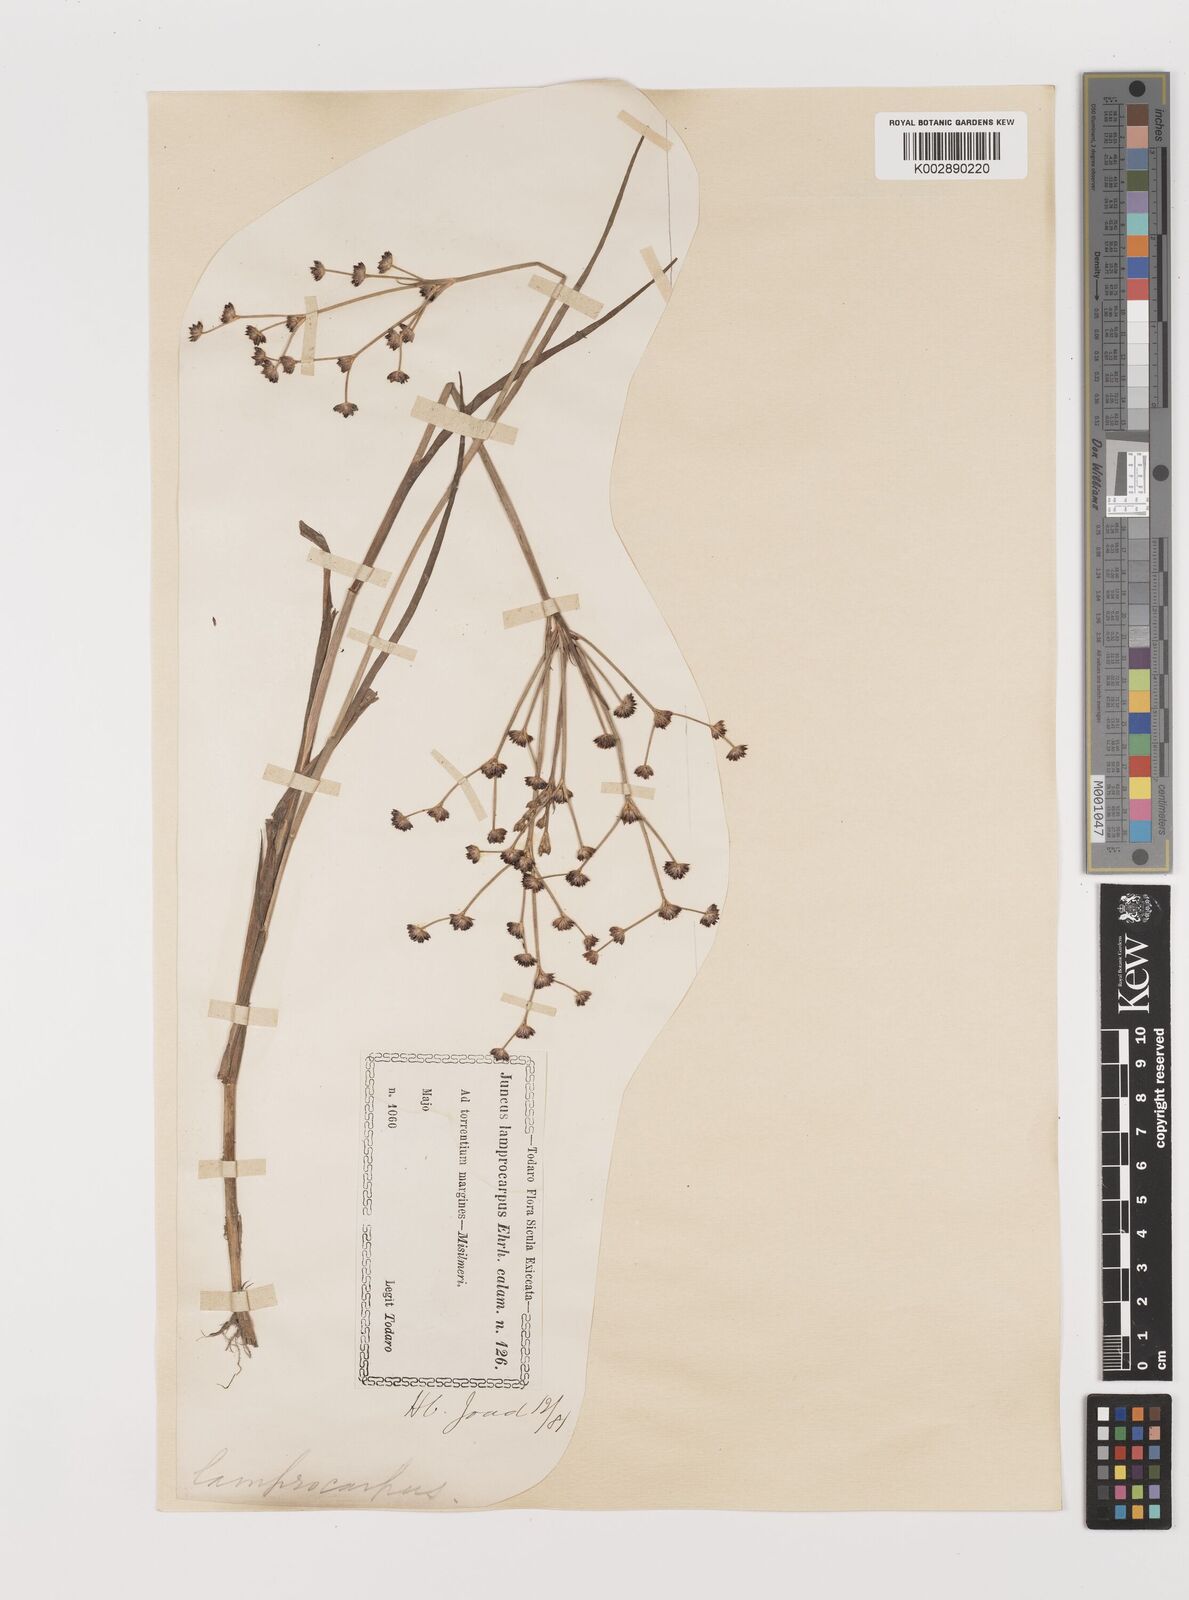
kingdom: Plantae
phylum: Tracheophyta
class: Liliopsida
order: Poales
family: Juncaceae
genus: Juncus
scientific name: Juncus articulatus
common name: Jointed rush
